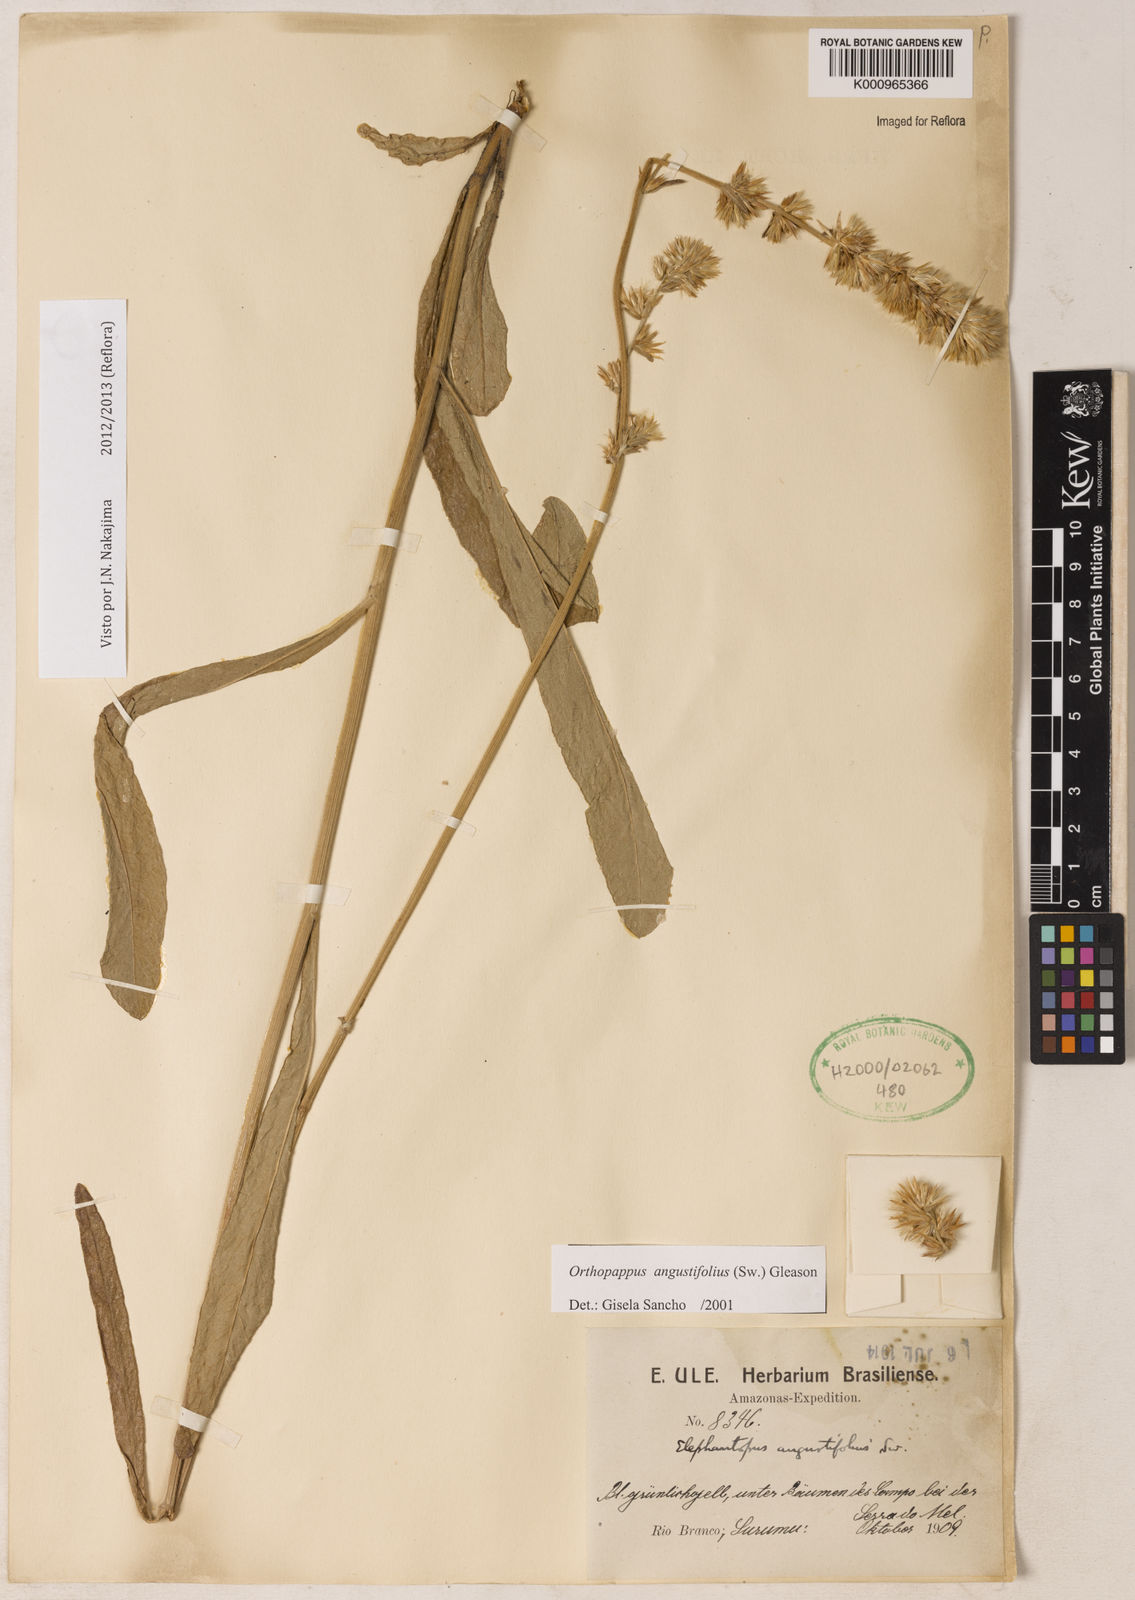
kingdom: Plantae
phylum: Tracheophyta
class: Magnoliopsida
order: Asterales
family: Asteraceae
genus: Orthopappus
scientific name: Orthopappus angustifolius
